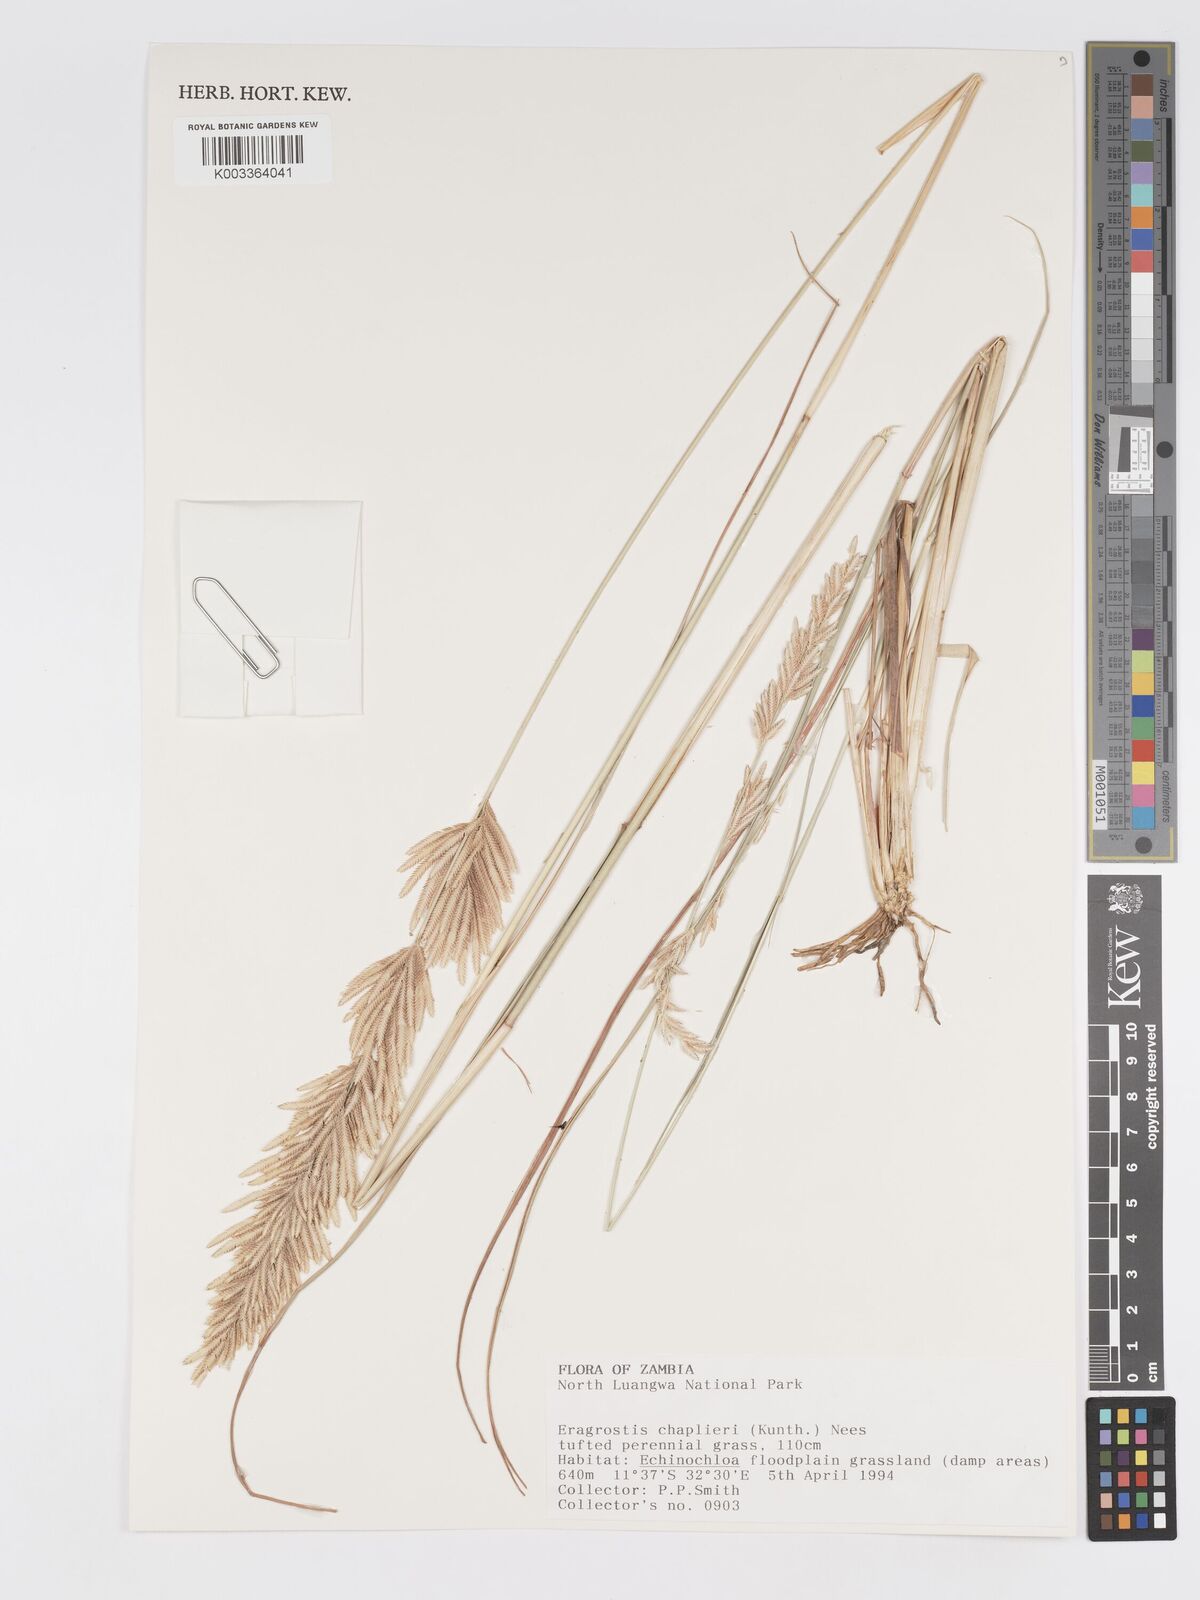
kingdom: Plantae
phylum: Tracheophyta
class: Liliopsida
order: Poales
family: Poaceae
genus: Eragrostis
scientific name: Eragrostis chapelieri
